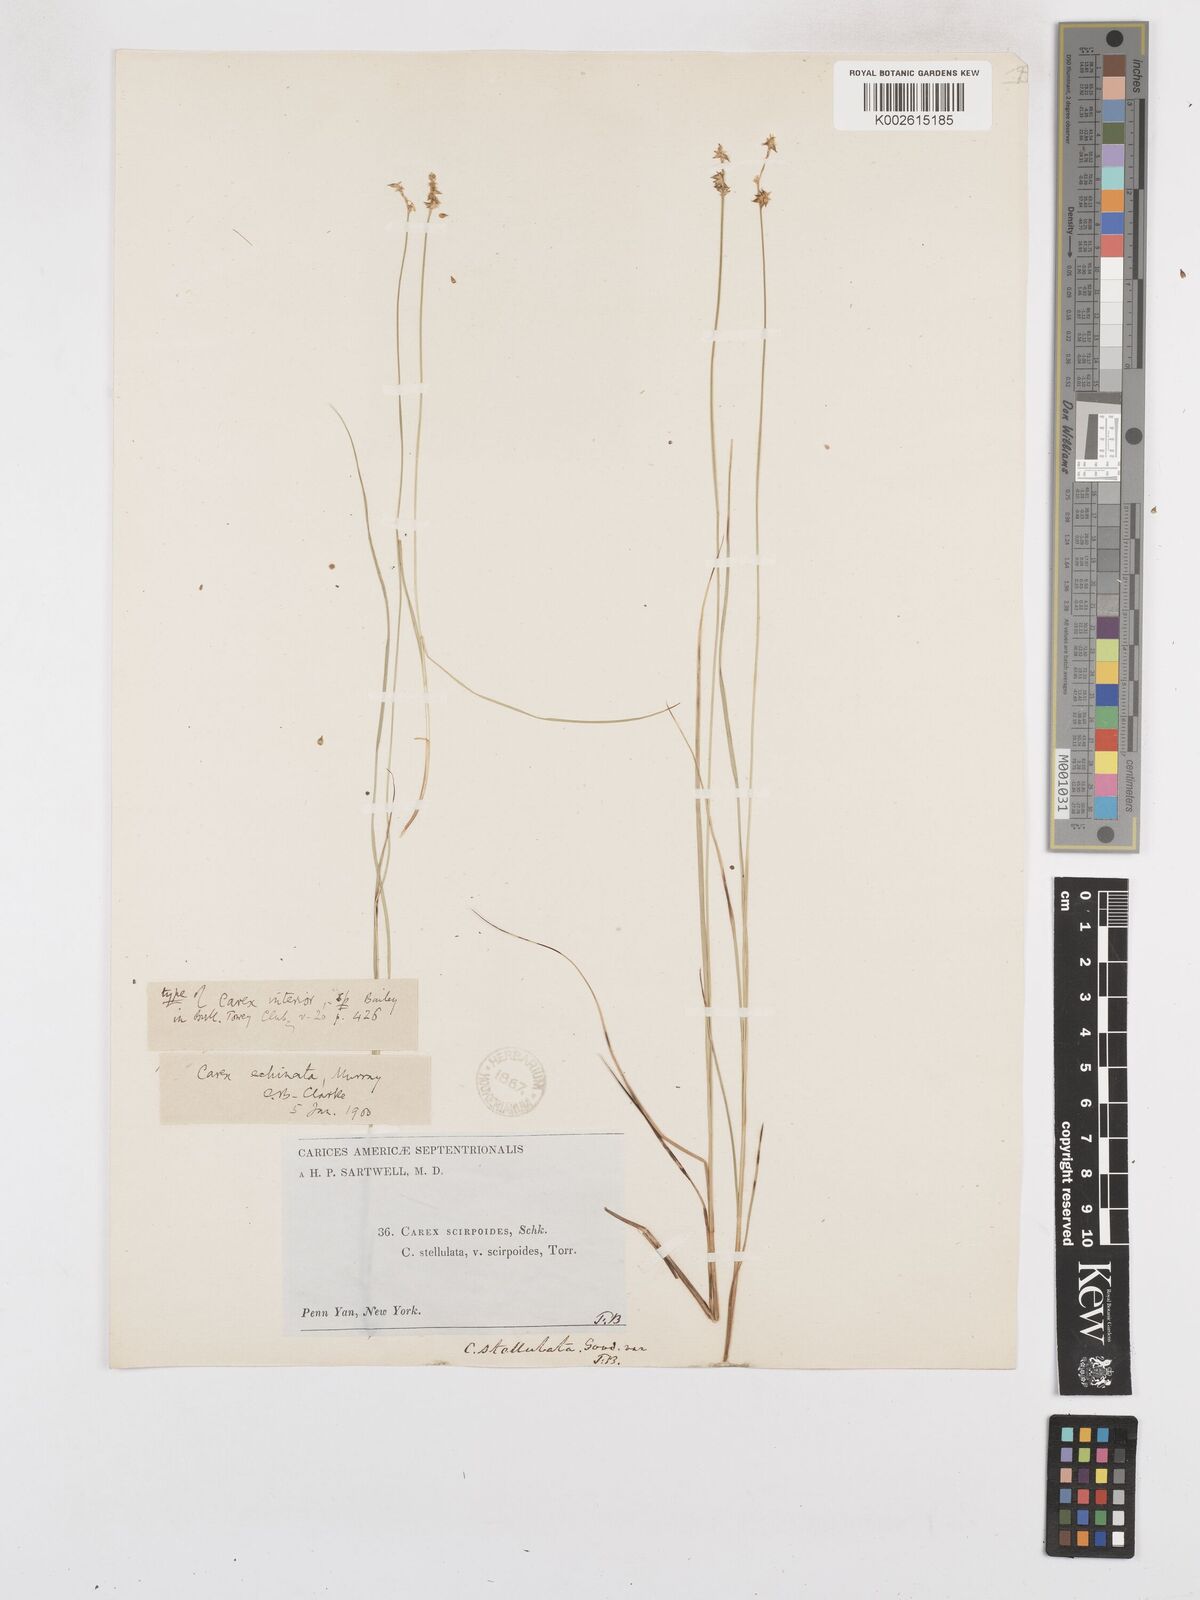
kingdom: Plantae
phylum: Tracheophyta
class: Liliopsida
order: Poales
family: Cyperaceae
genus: Carex
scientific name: Carex echinata
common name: Star sedge
